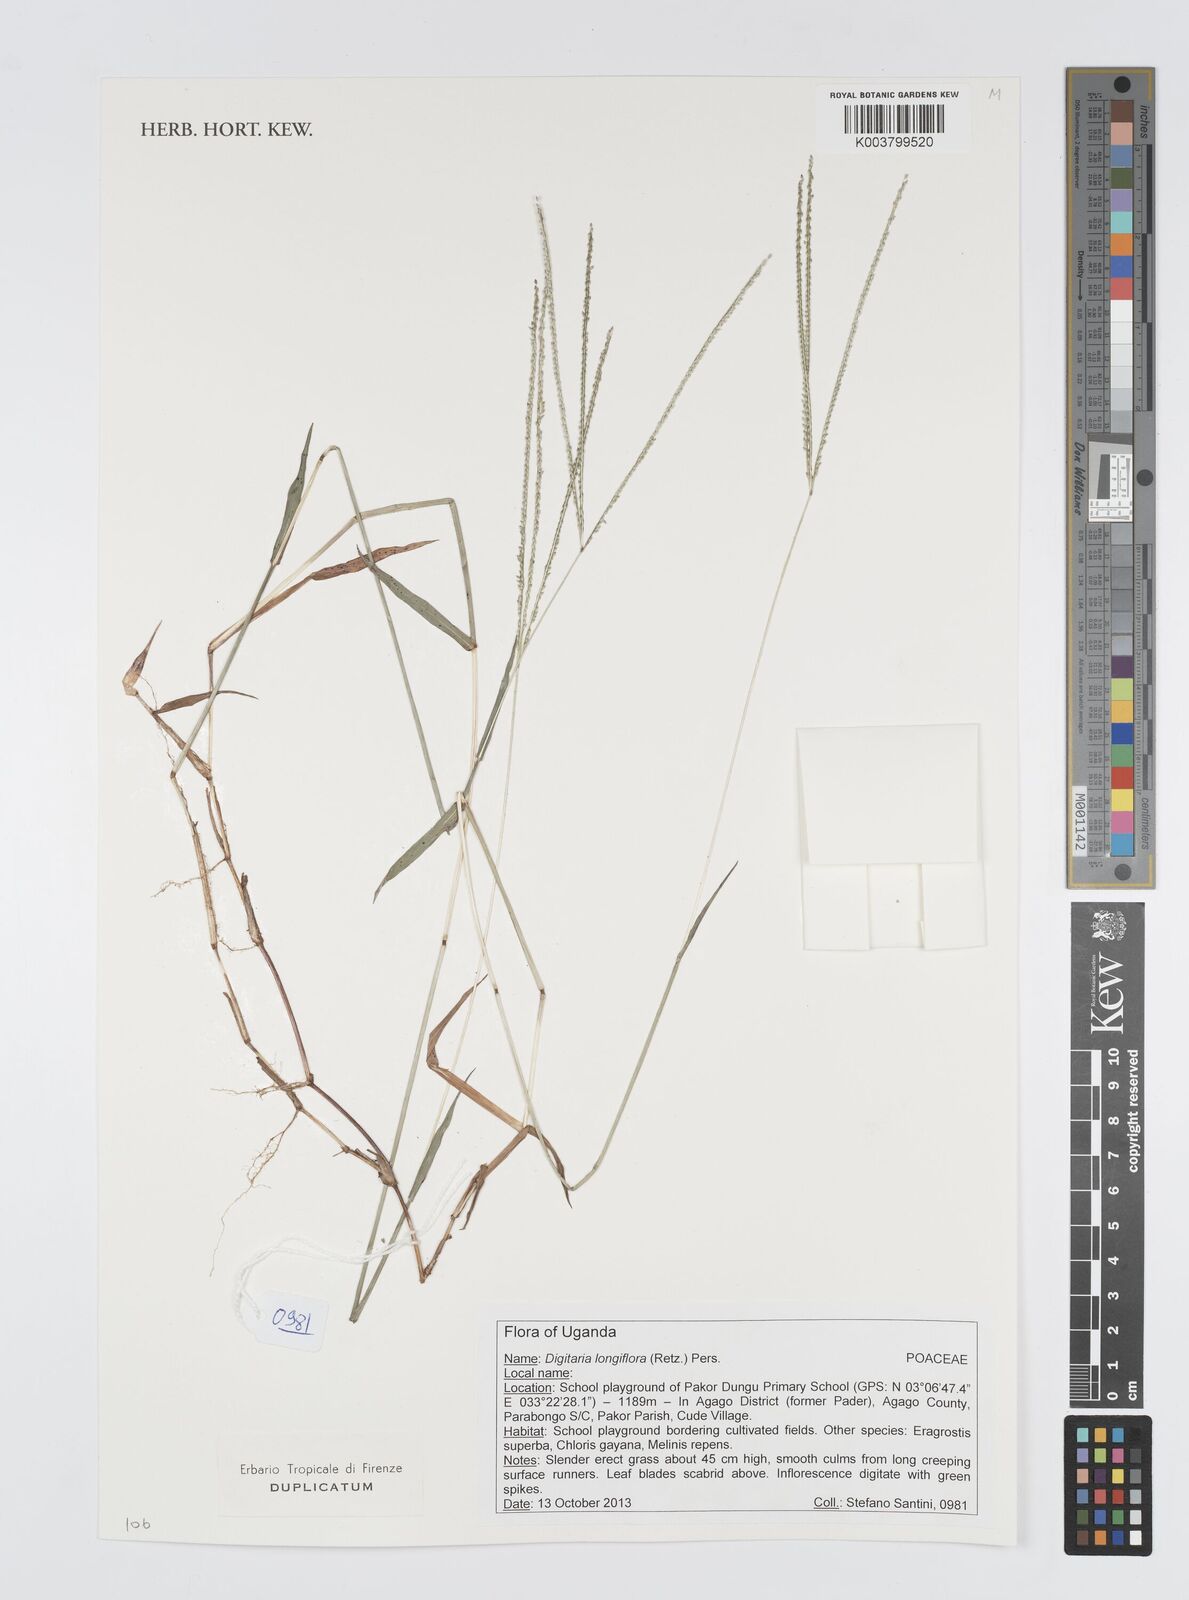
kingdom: Plantae
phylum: Tracheophyta
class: Liliopsida
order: Poales
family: Poaceae
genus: Digitaria
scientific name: Digitaria longiflora
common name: Wire crabgrass
